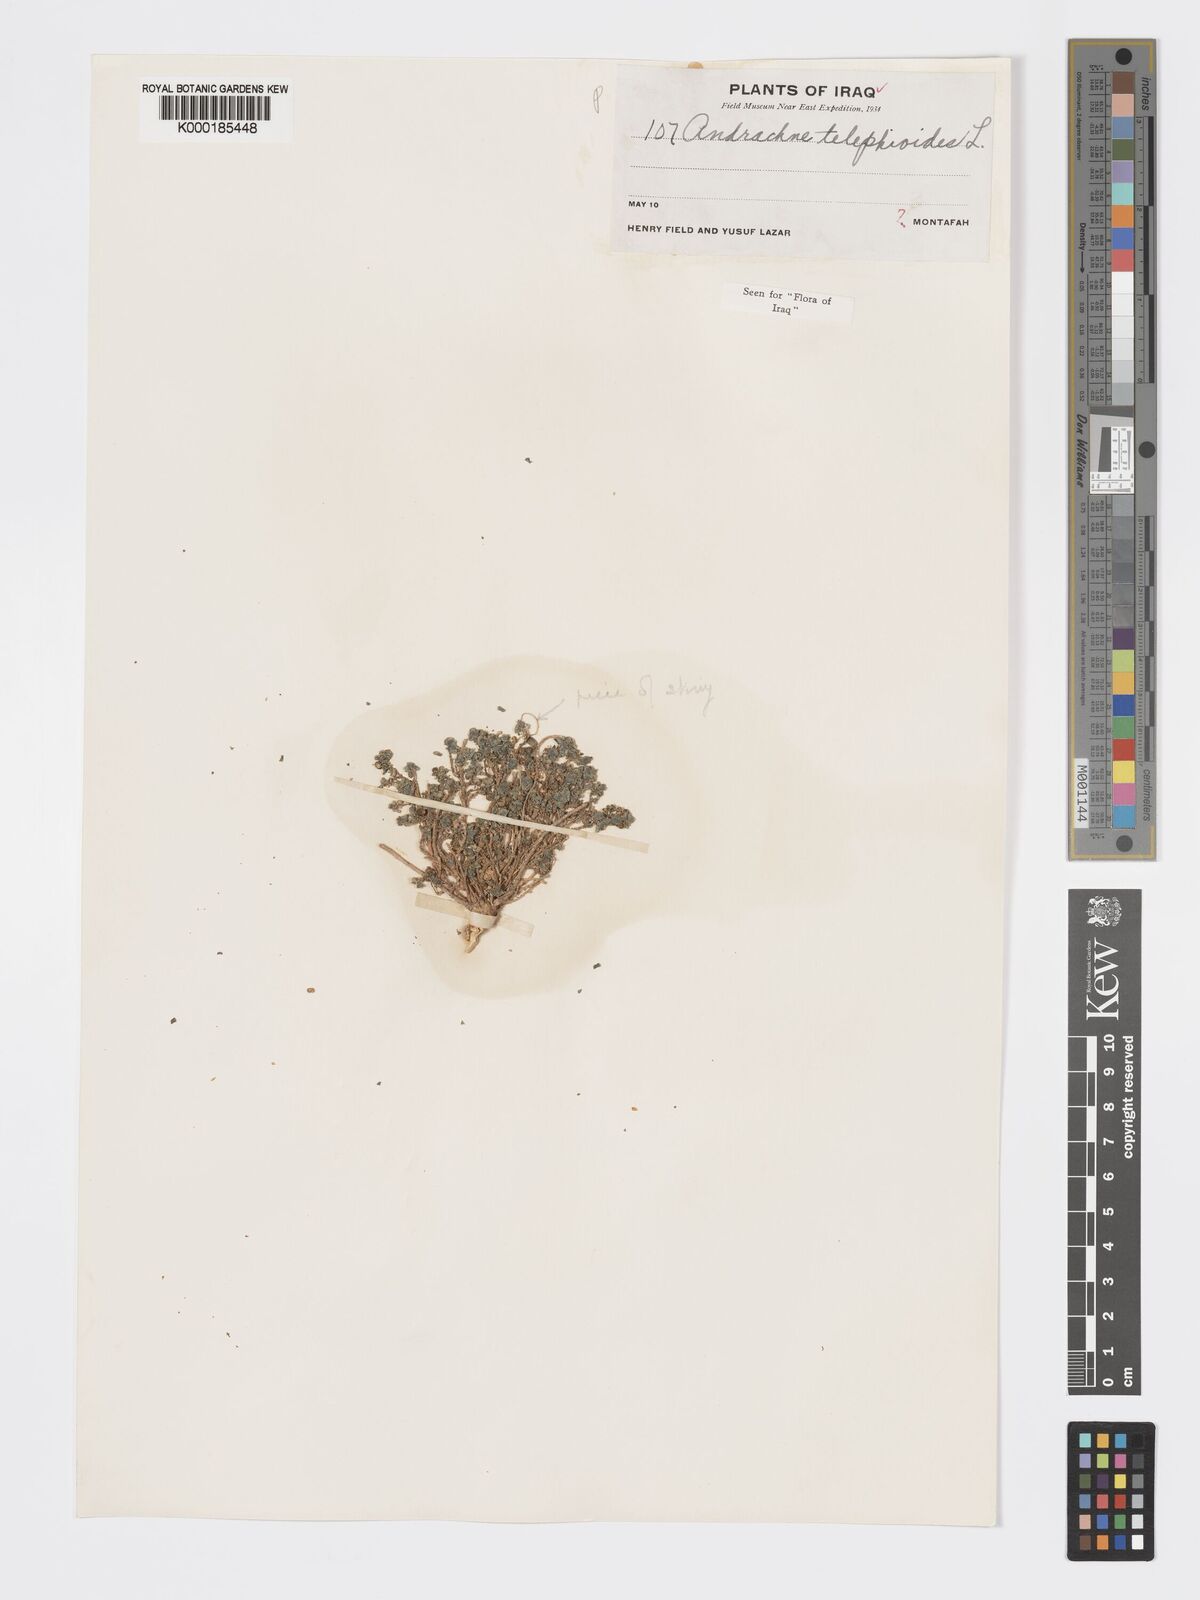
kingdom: Plantae
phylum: Tracheophyta
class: Magnoliopsida
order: Malpighiales
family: Phyllanthaceae
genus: Andrachne
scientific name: Andrachne telephioides
